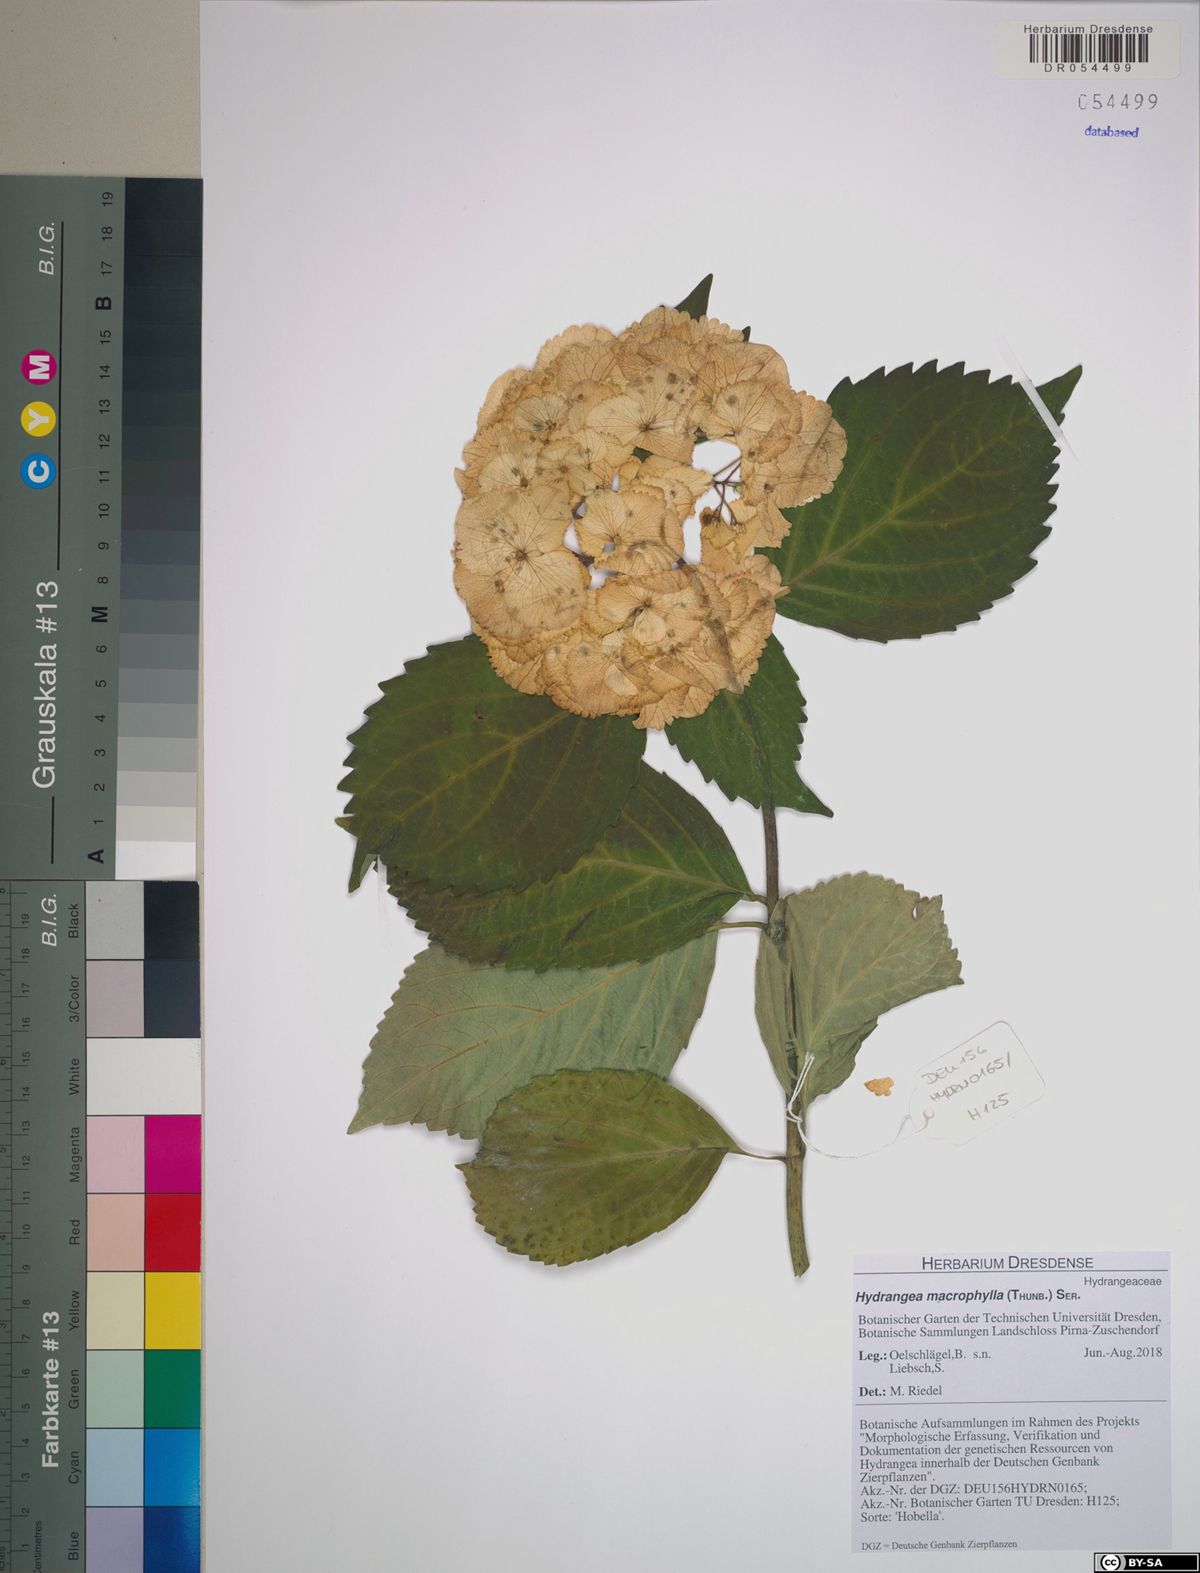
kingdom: Plantae
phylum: Tracheophyta
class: Magnoliopsida
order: Cornales
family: Hydrangeaceae
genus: Hydrangea
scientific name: Hydrangea macrophylla
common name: Hydrangea
